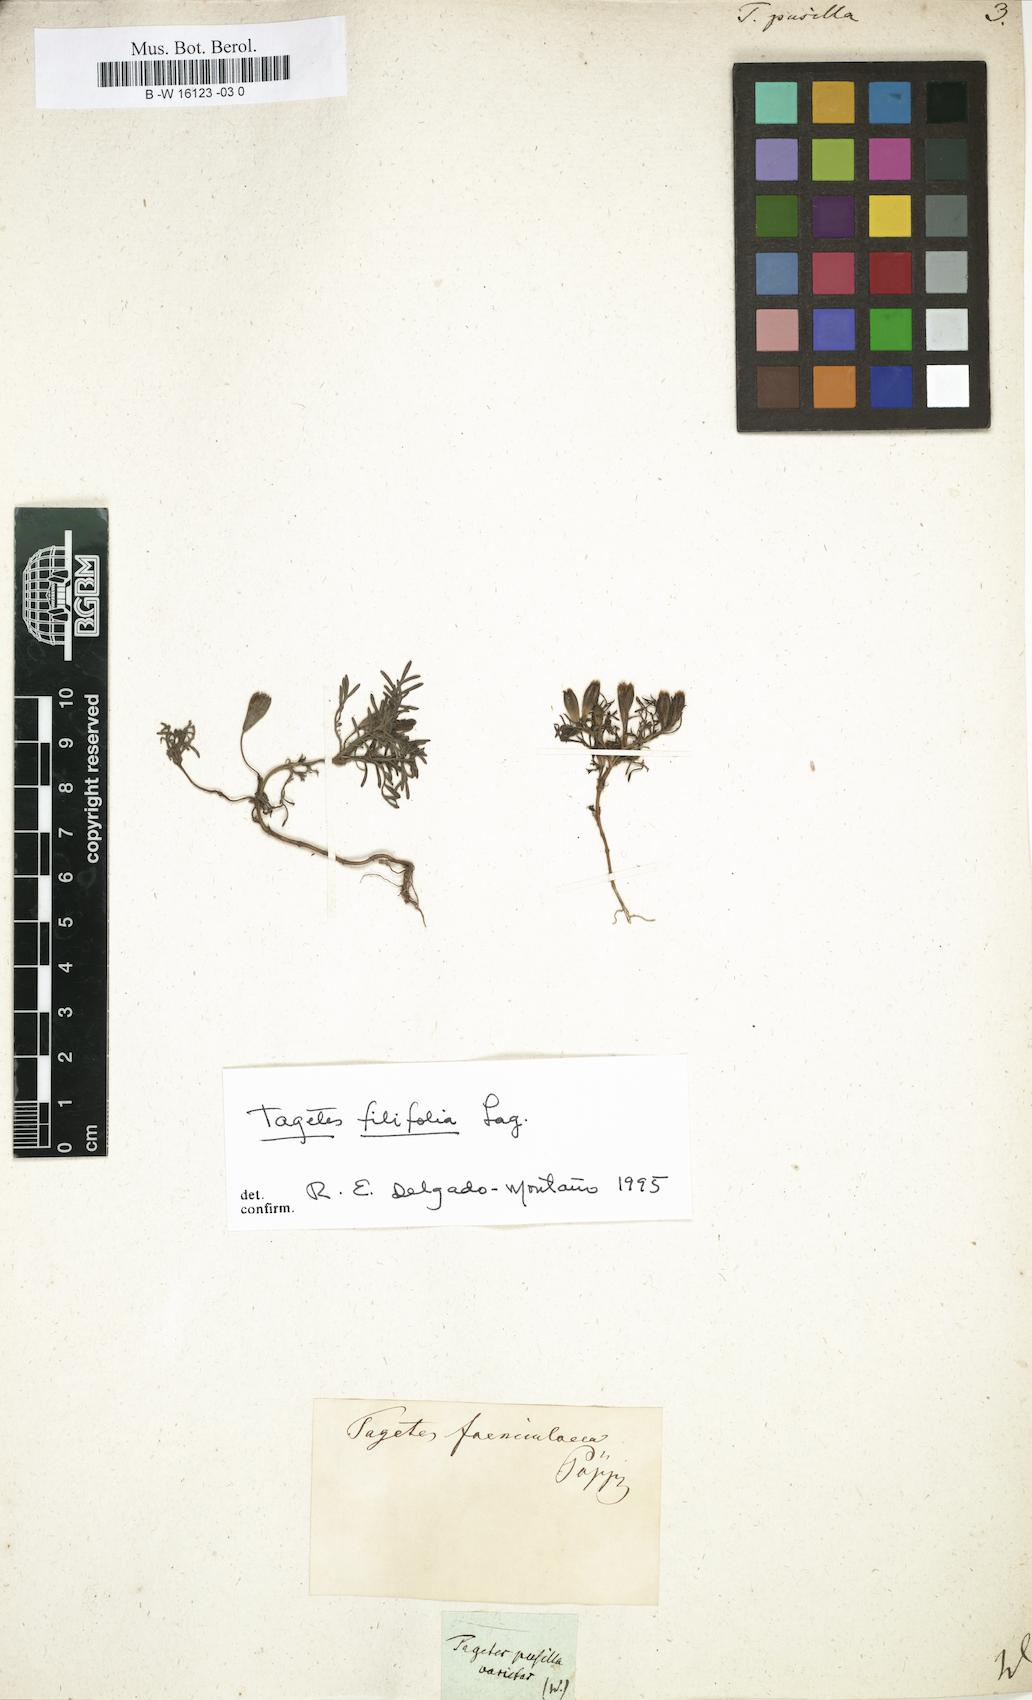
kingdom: Plantae
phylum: Tracheophyta
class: Magnoliopsida
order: Asterales
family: Asteraceae
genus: Tagetes
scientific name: Tagetes filifolia
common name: Lesser marigold
